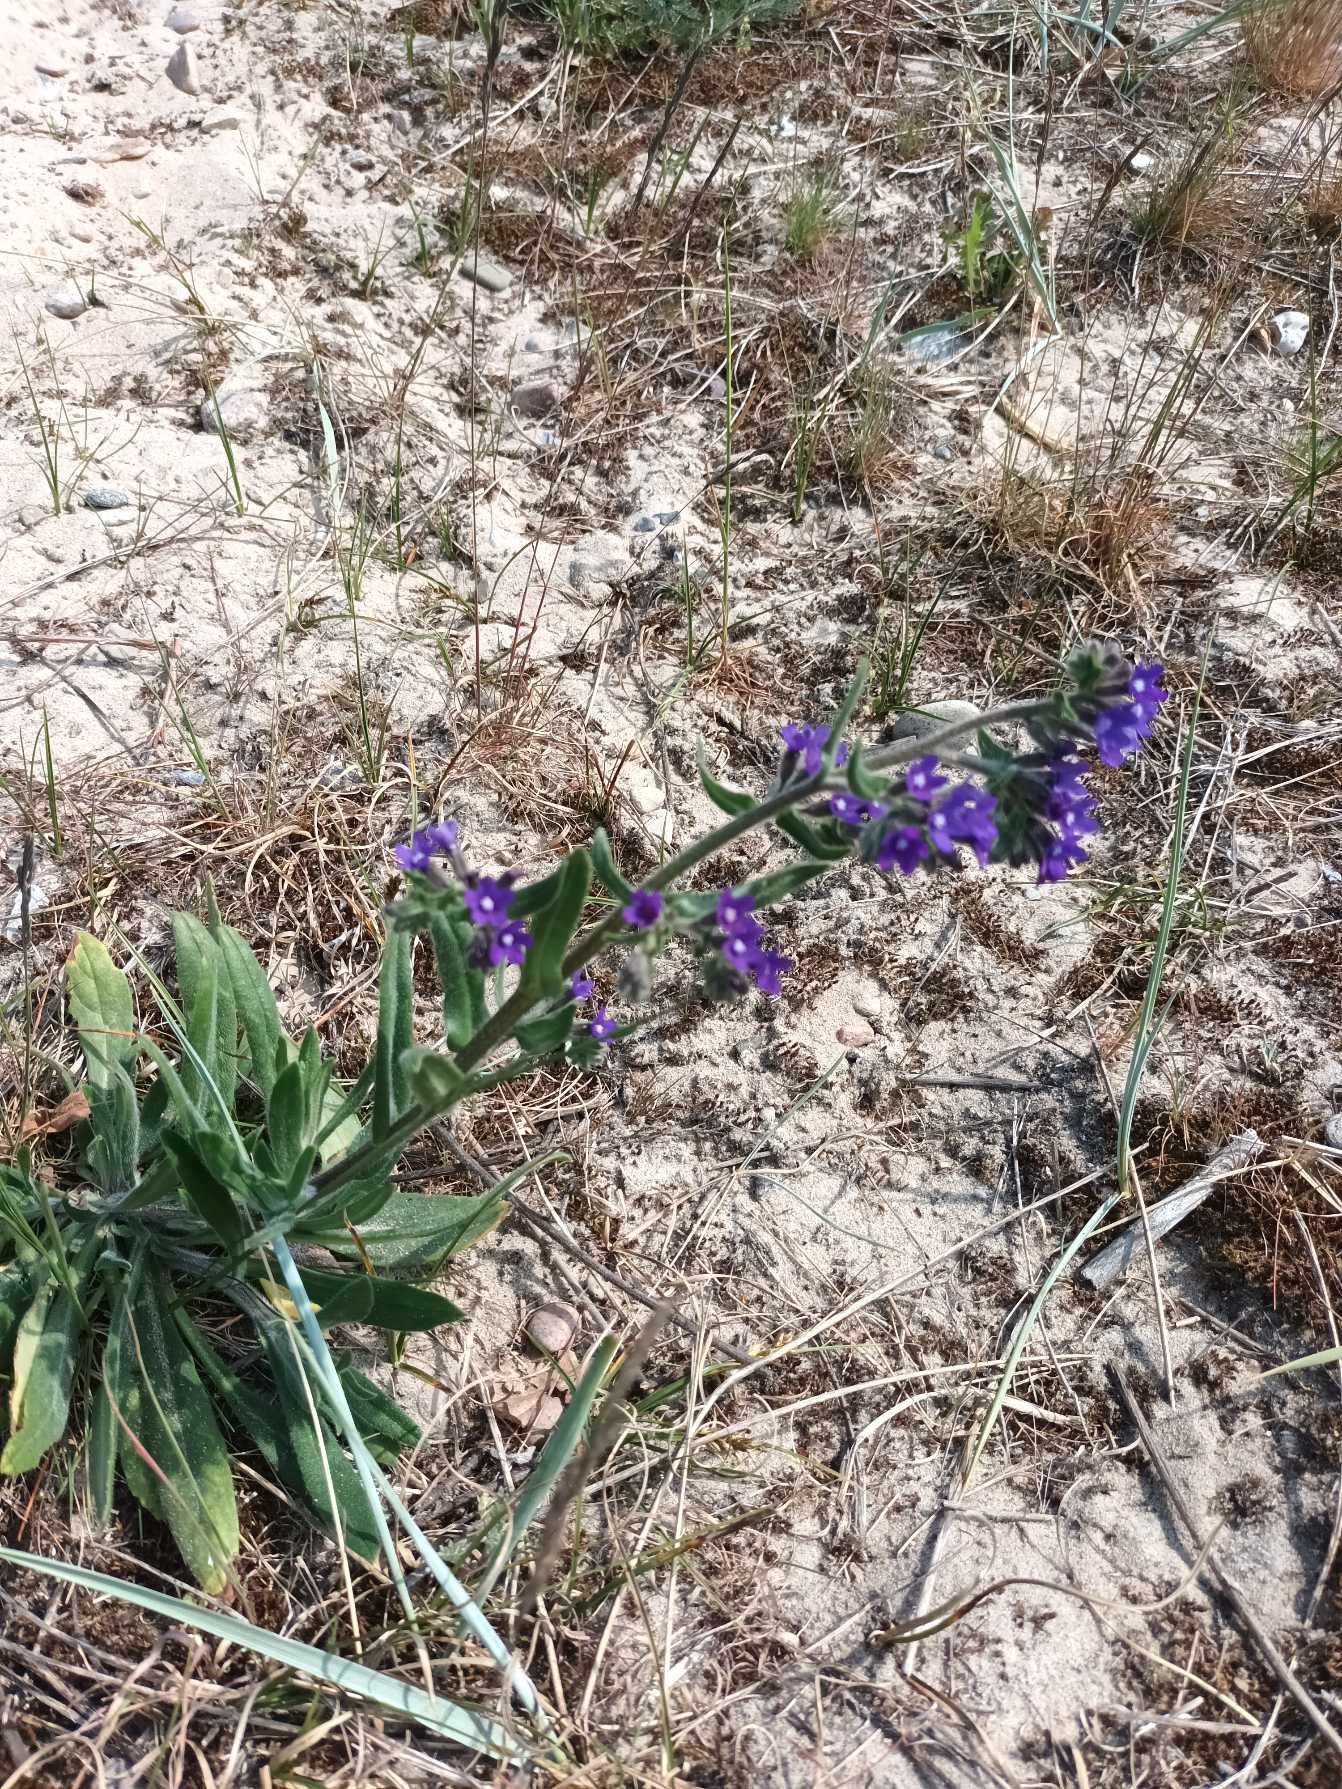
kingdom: Plantae
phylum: Tracheophyta
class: Magnoliopsida
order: Boraginales
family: Boraginaceae
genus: Anchusa
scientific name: Anchusa officinalis
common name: Læge-oksetunge
